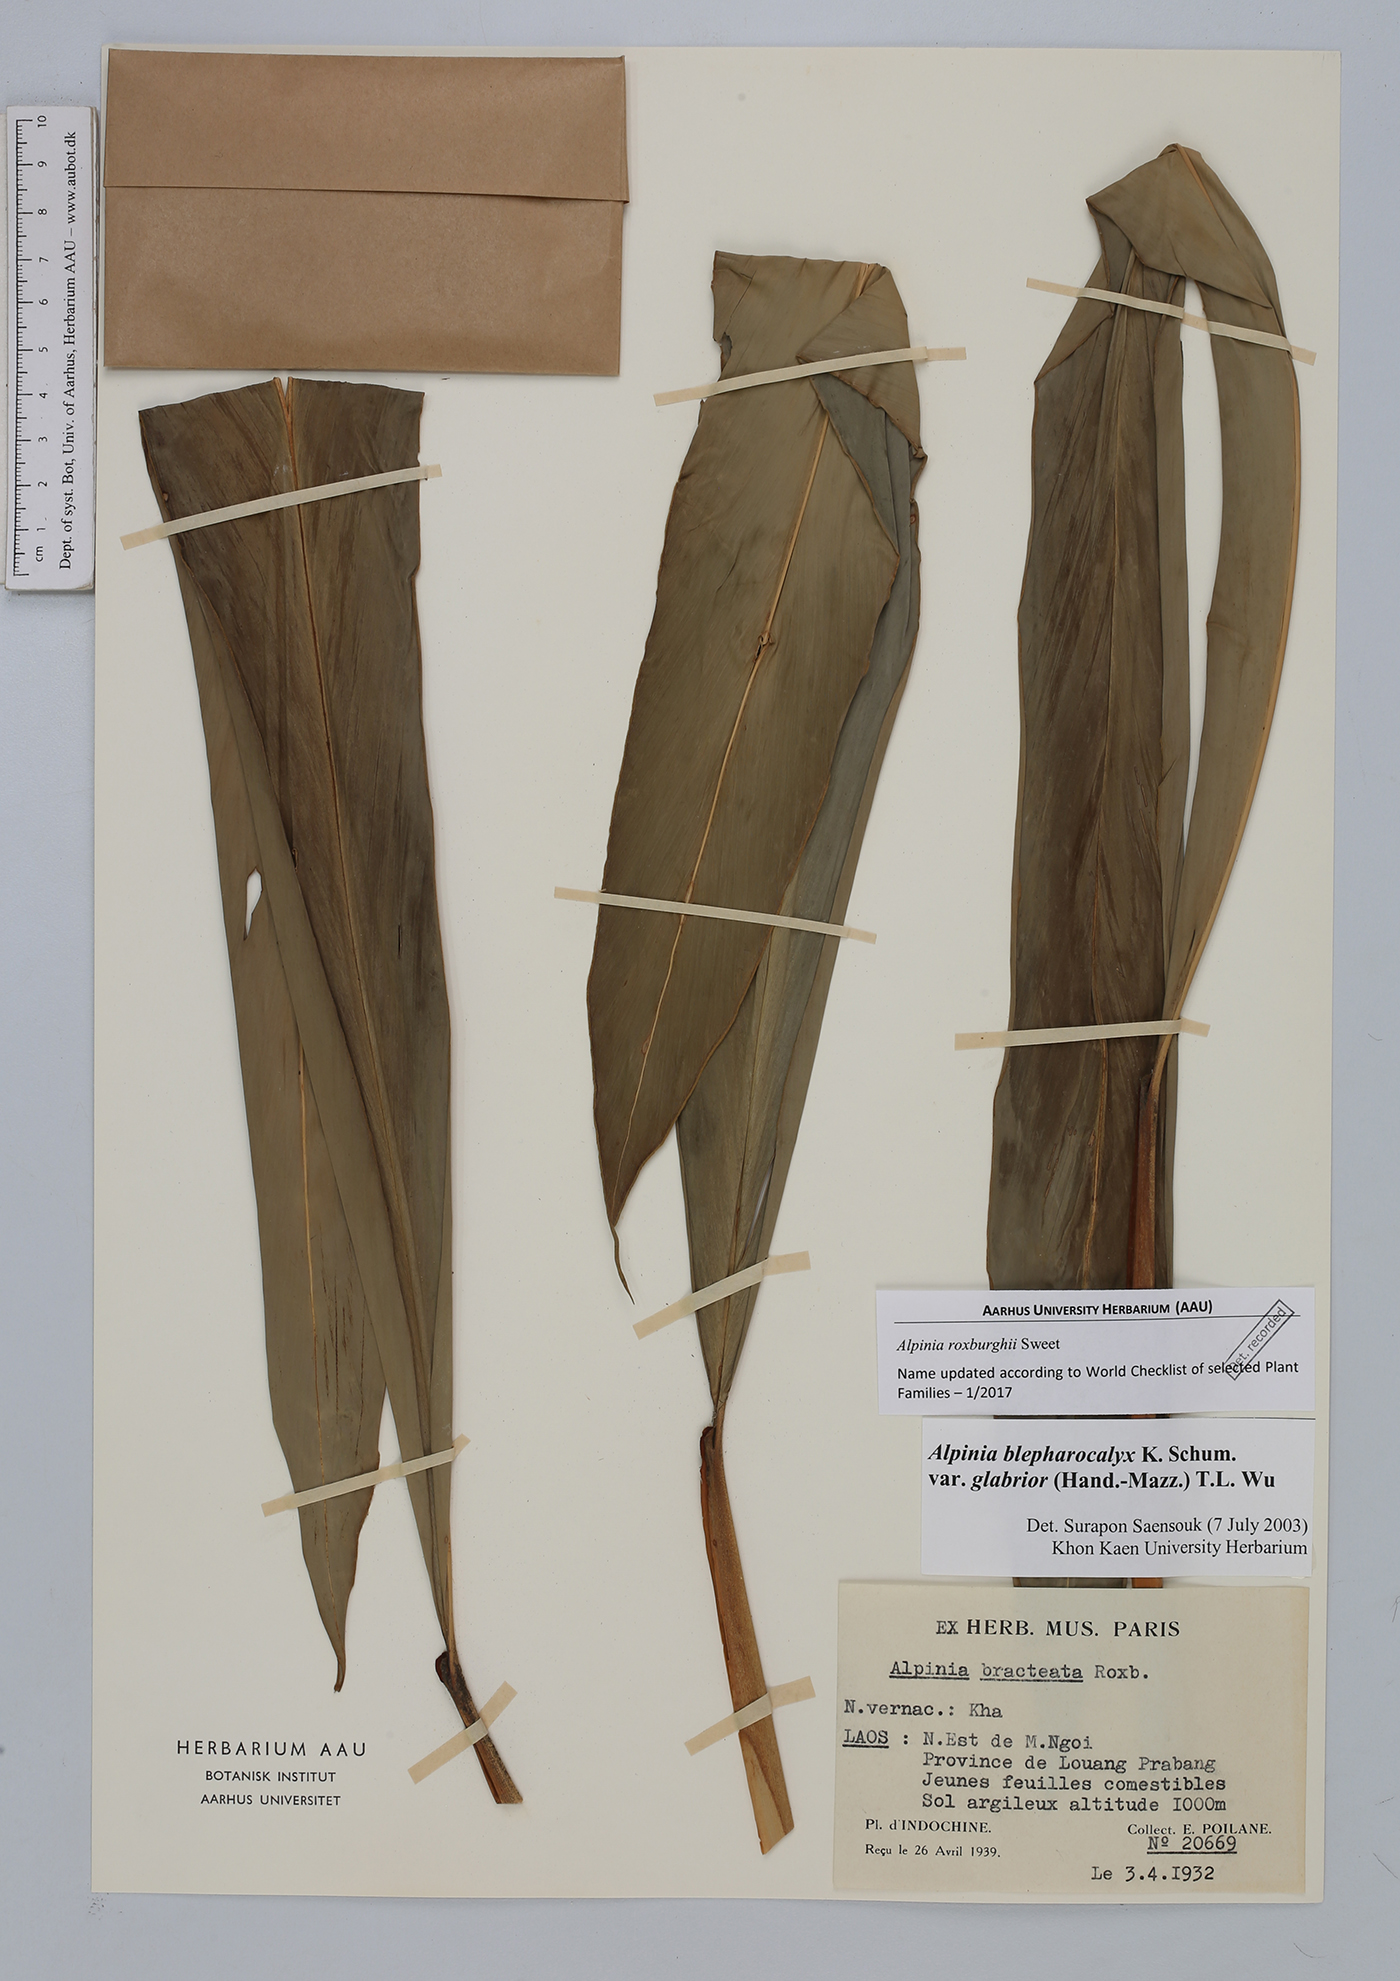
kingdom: Plantae
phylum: Tracheophyta
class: Liliopsida
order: Zingiberales
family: Zingiberaceae
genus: Alpinia
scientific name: Alpinia roxburghii
